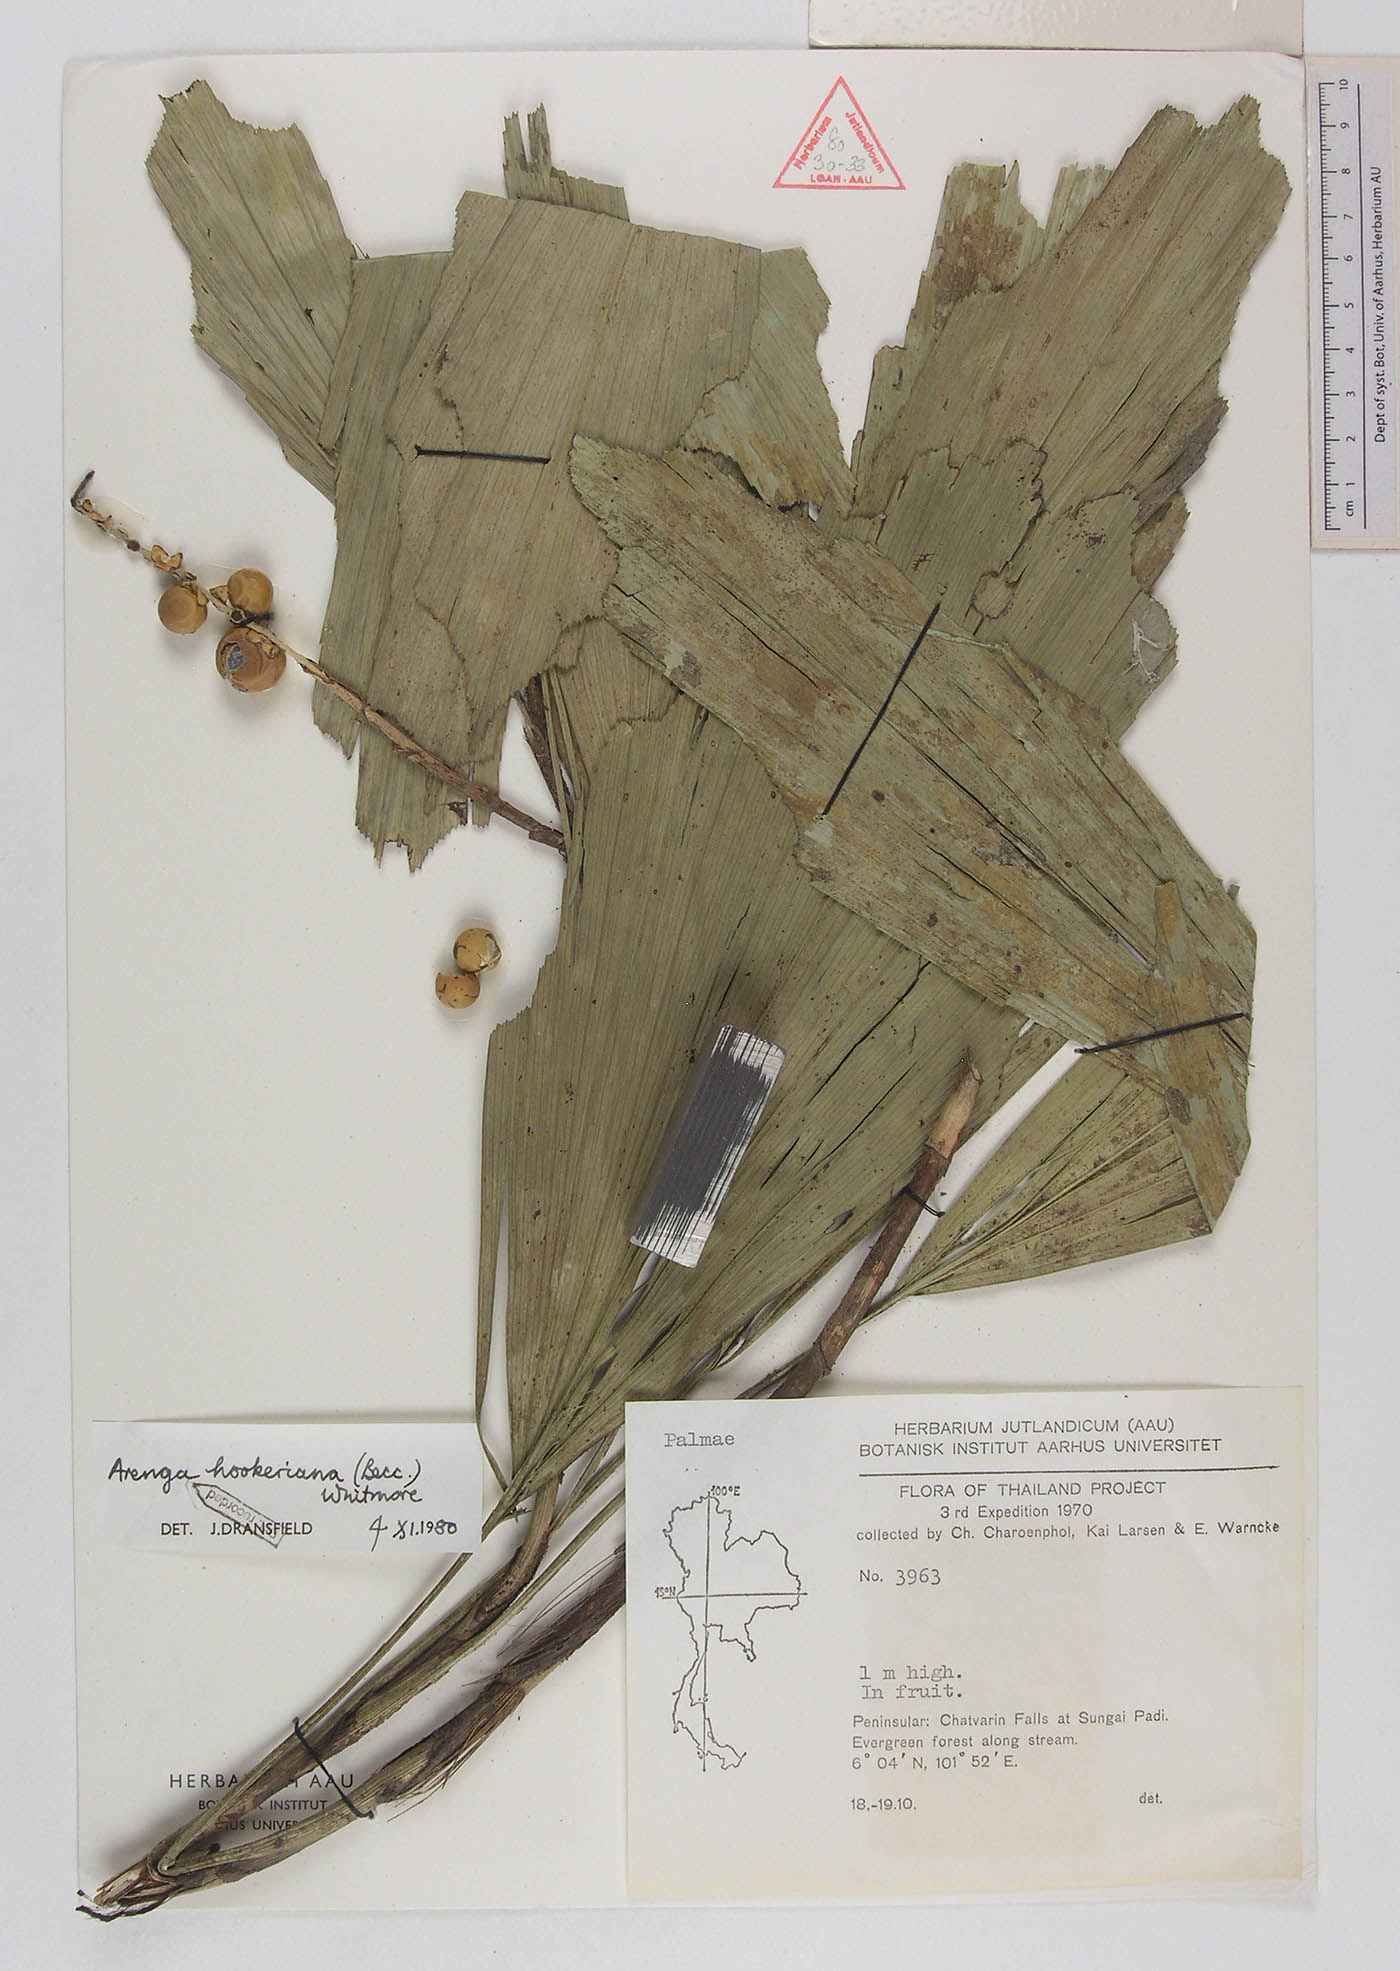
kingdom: Plantae
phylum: Tracheophyta
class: Liliopsida
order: Arecales
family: Arecaceae
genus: Arenga
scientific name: Arenga hookeriana
